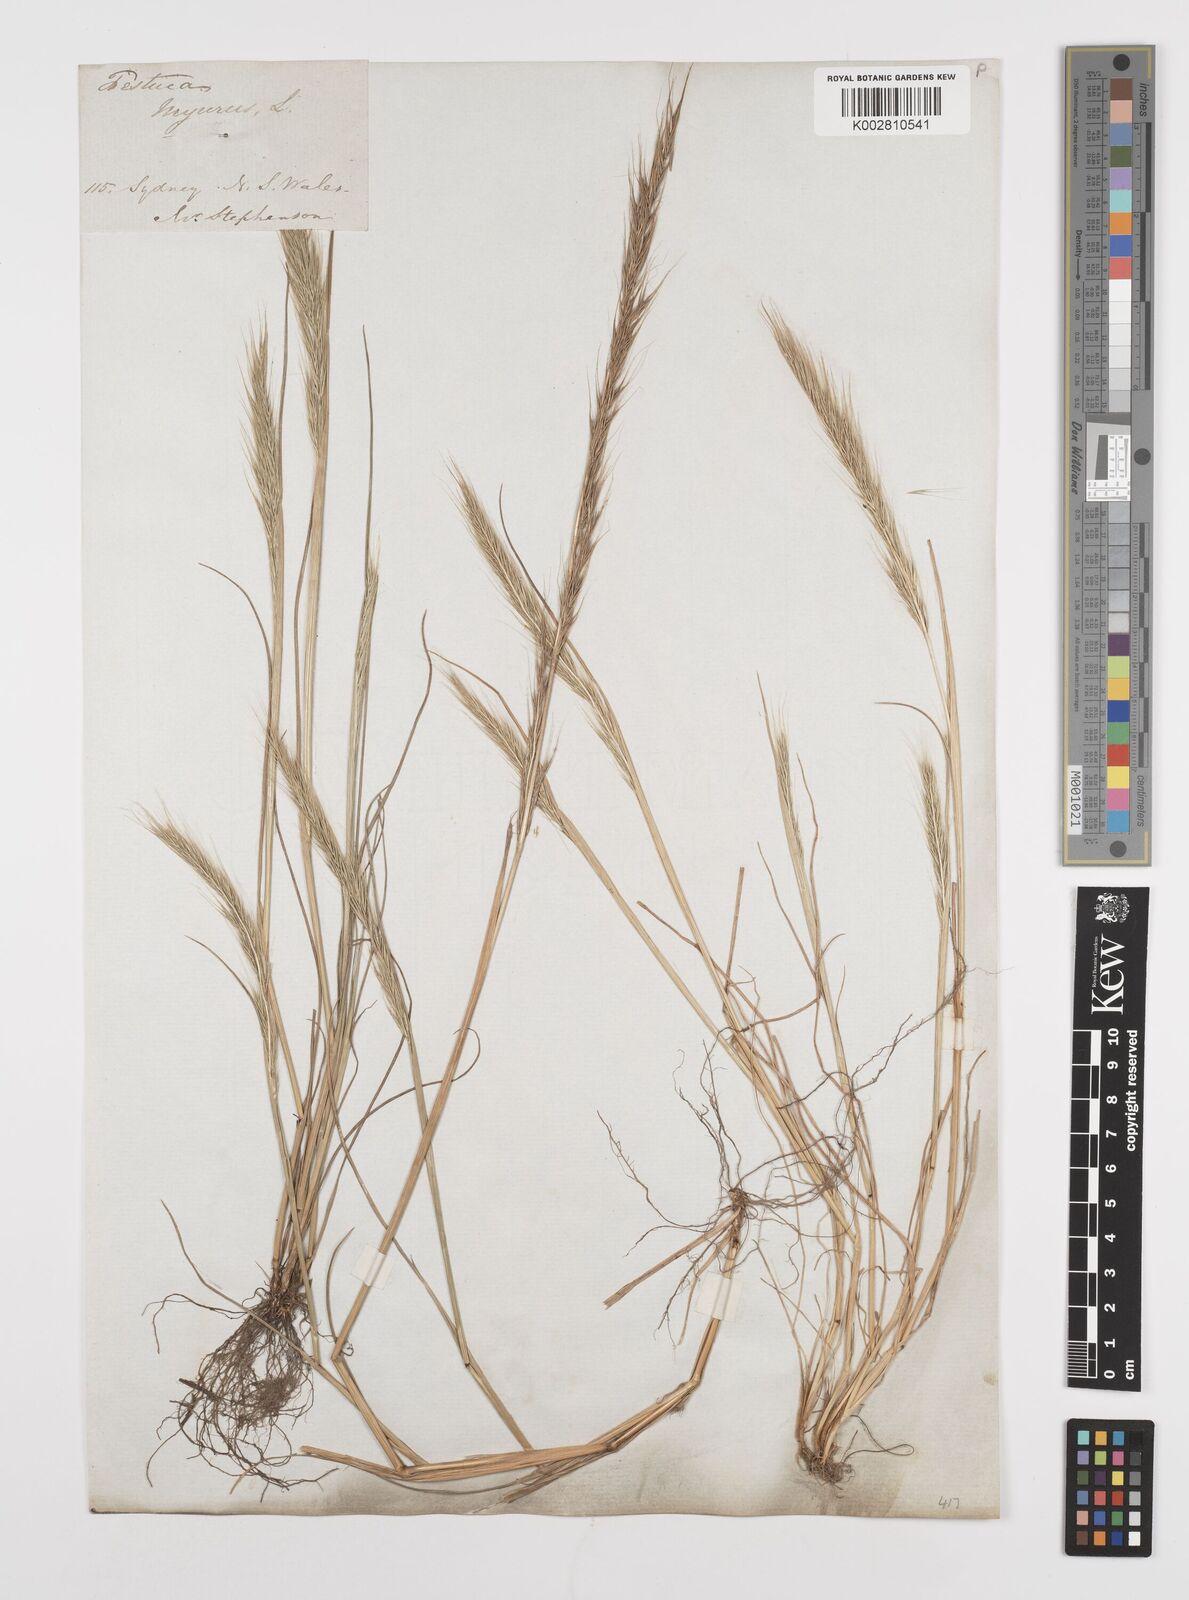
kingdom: Plantae
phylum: Tracheophyta
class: Liliopsida
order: Poales
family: Poaceae
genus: Festuca
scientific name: Festuca myuros
